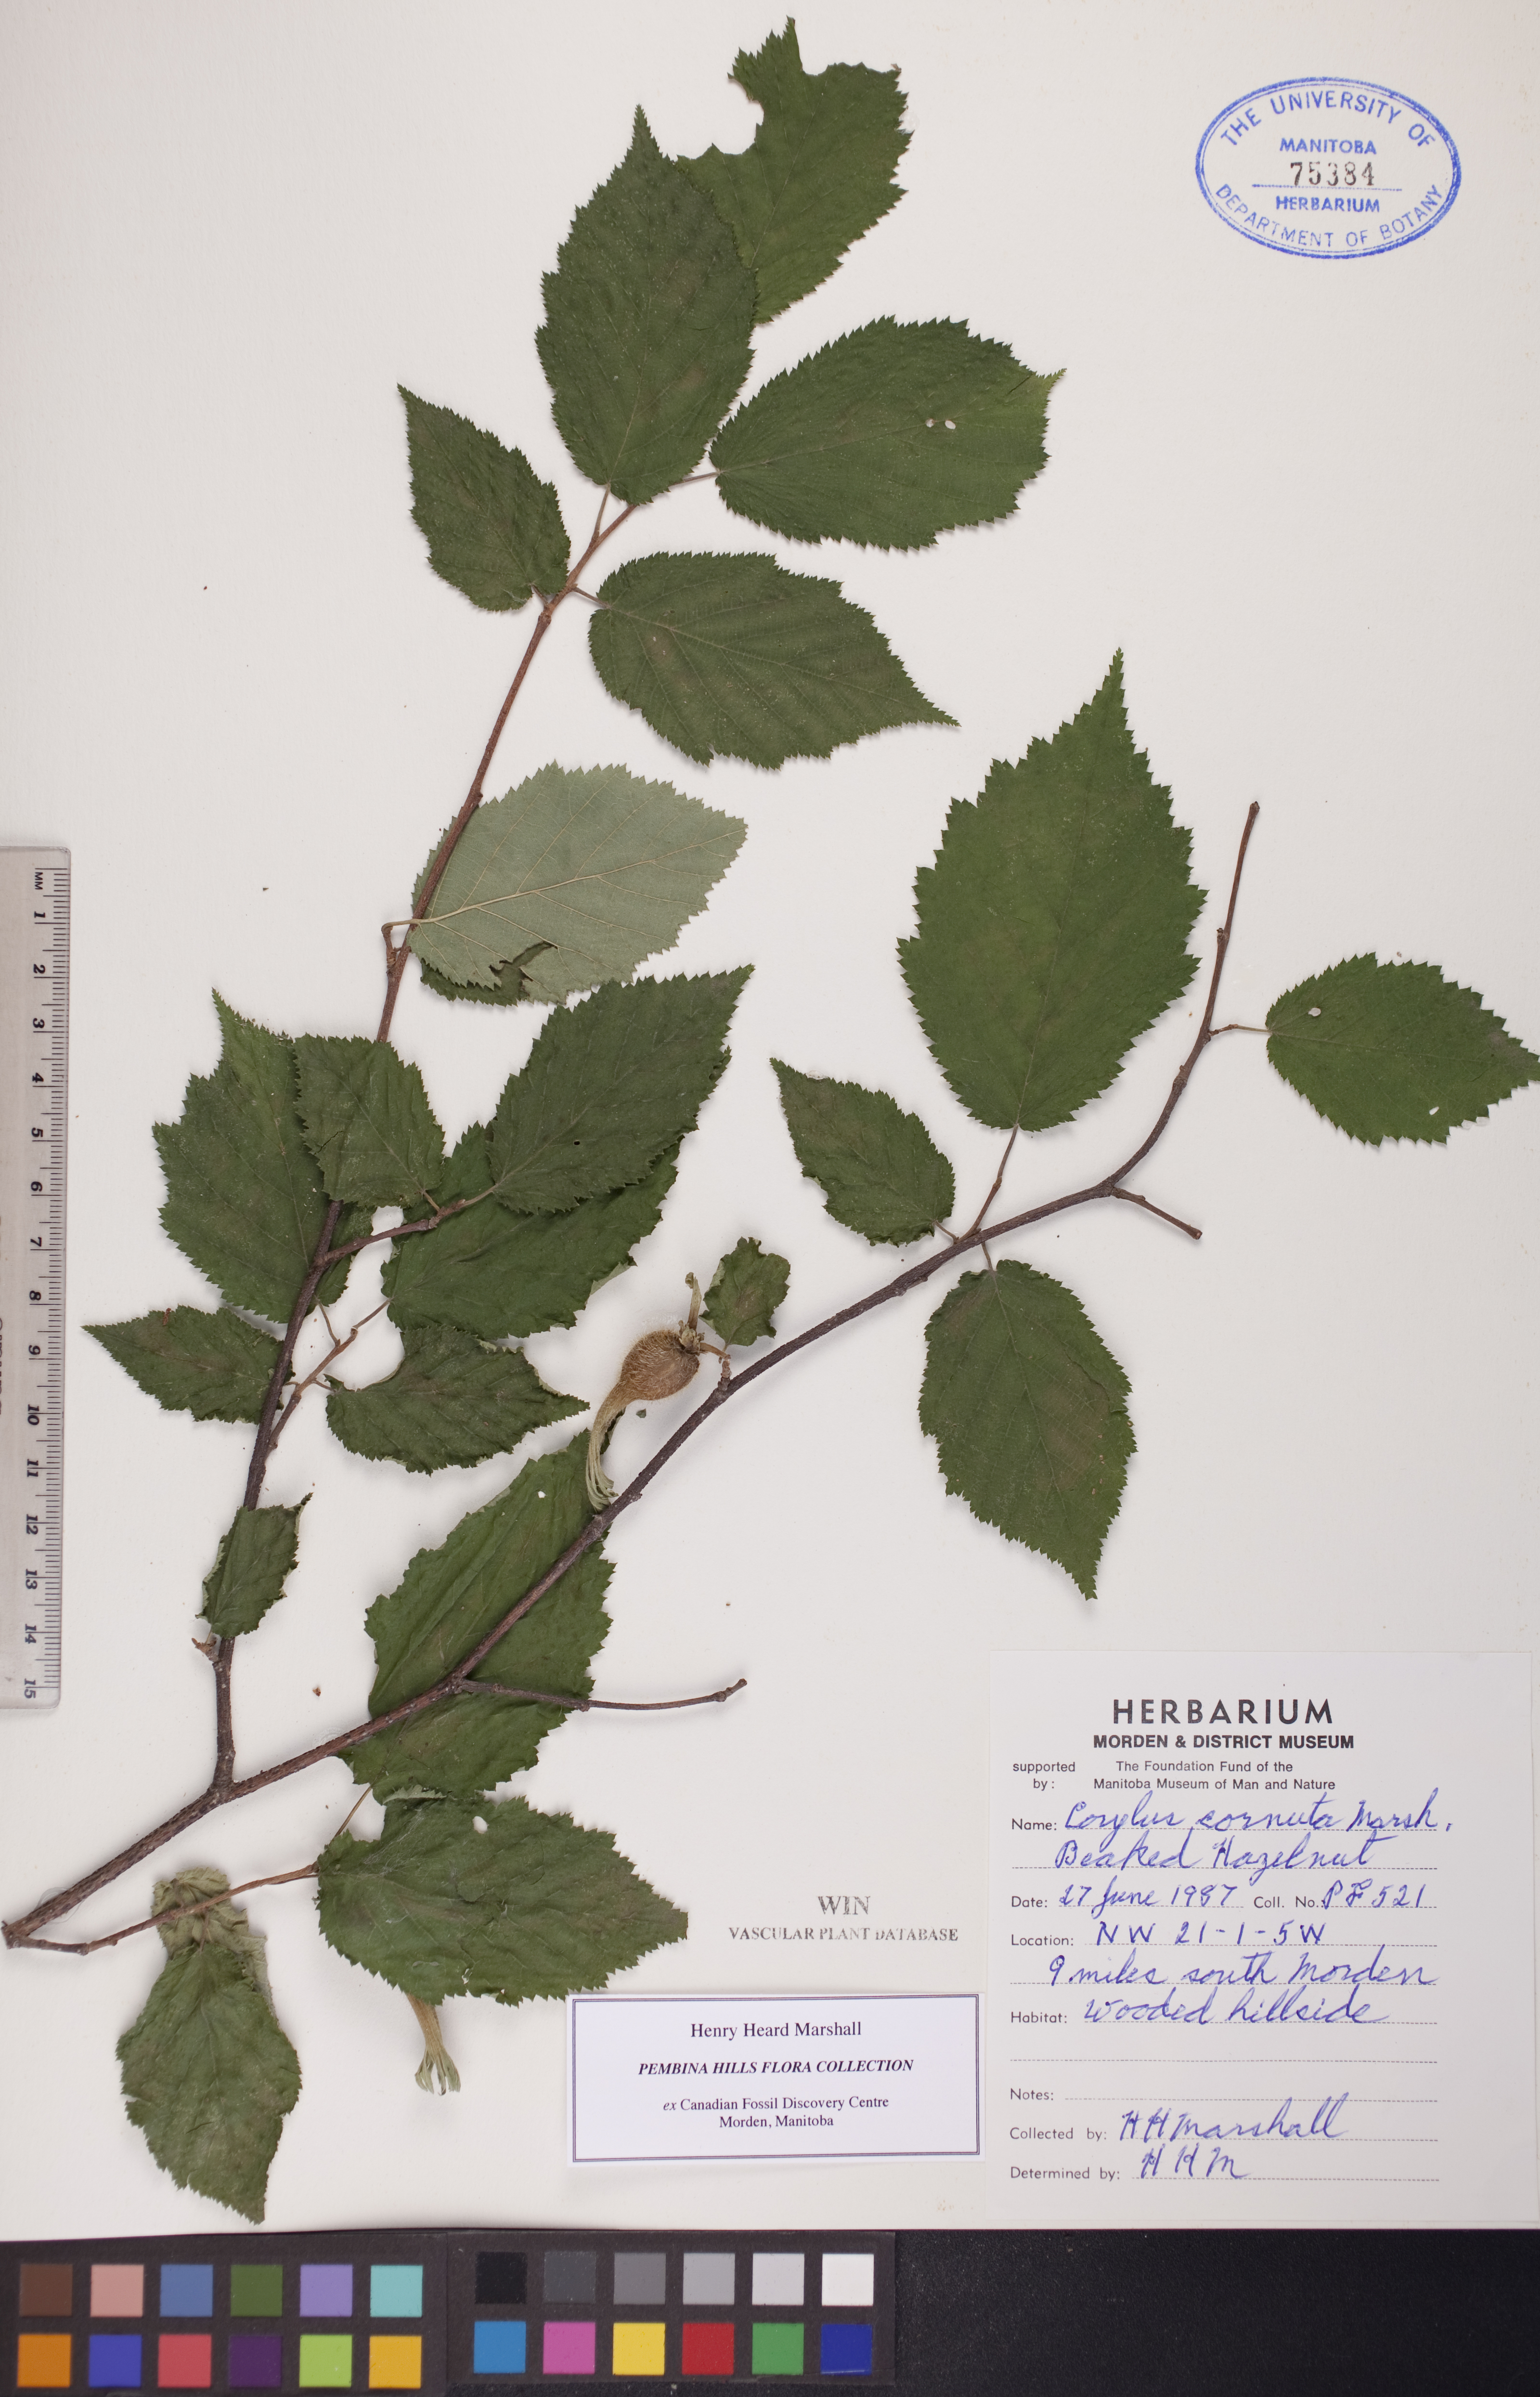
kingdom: Plantae
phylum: Tracheophyta
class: Magnoliopsida
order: Fagales
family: Betulaceae
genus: Corylus
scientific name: Corylus cornuta
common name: Beaked hazel
